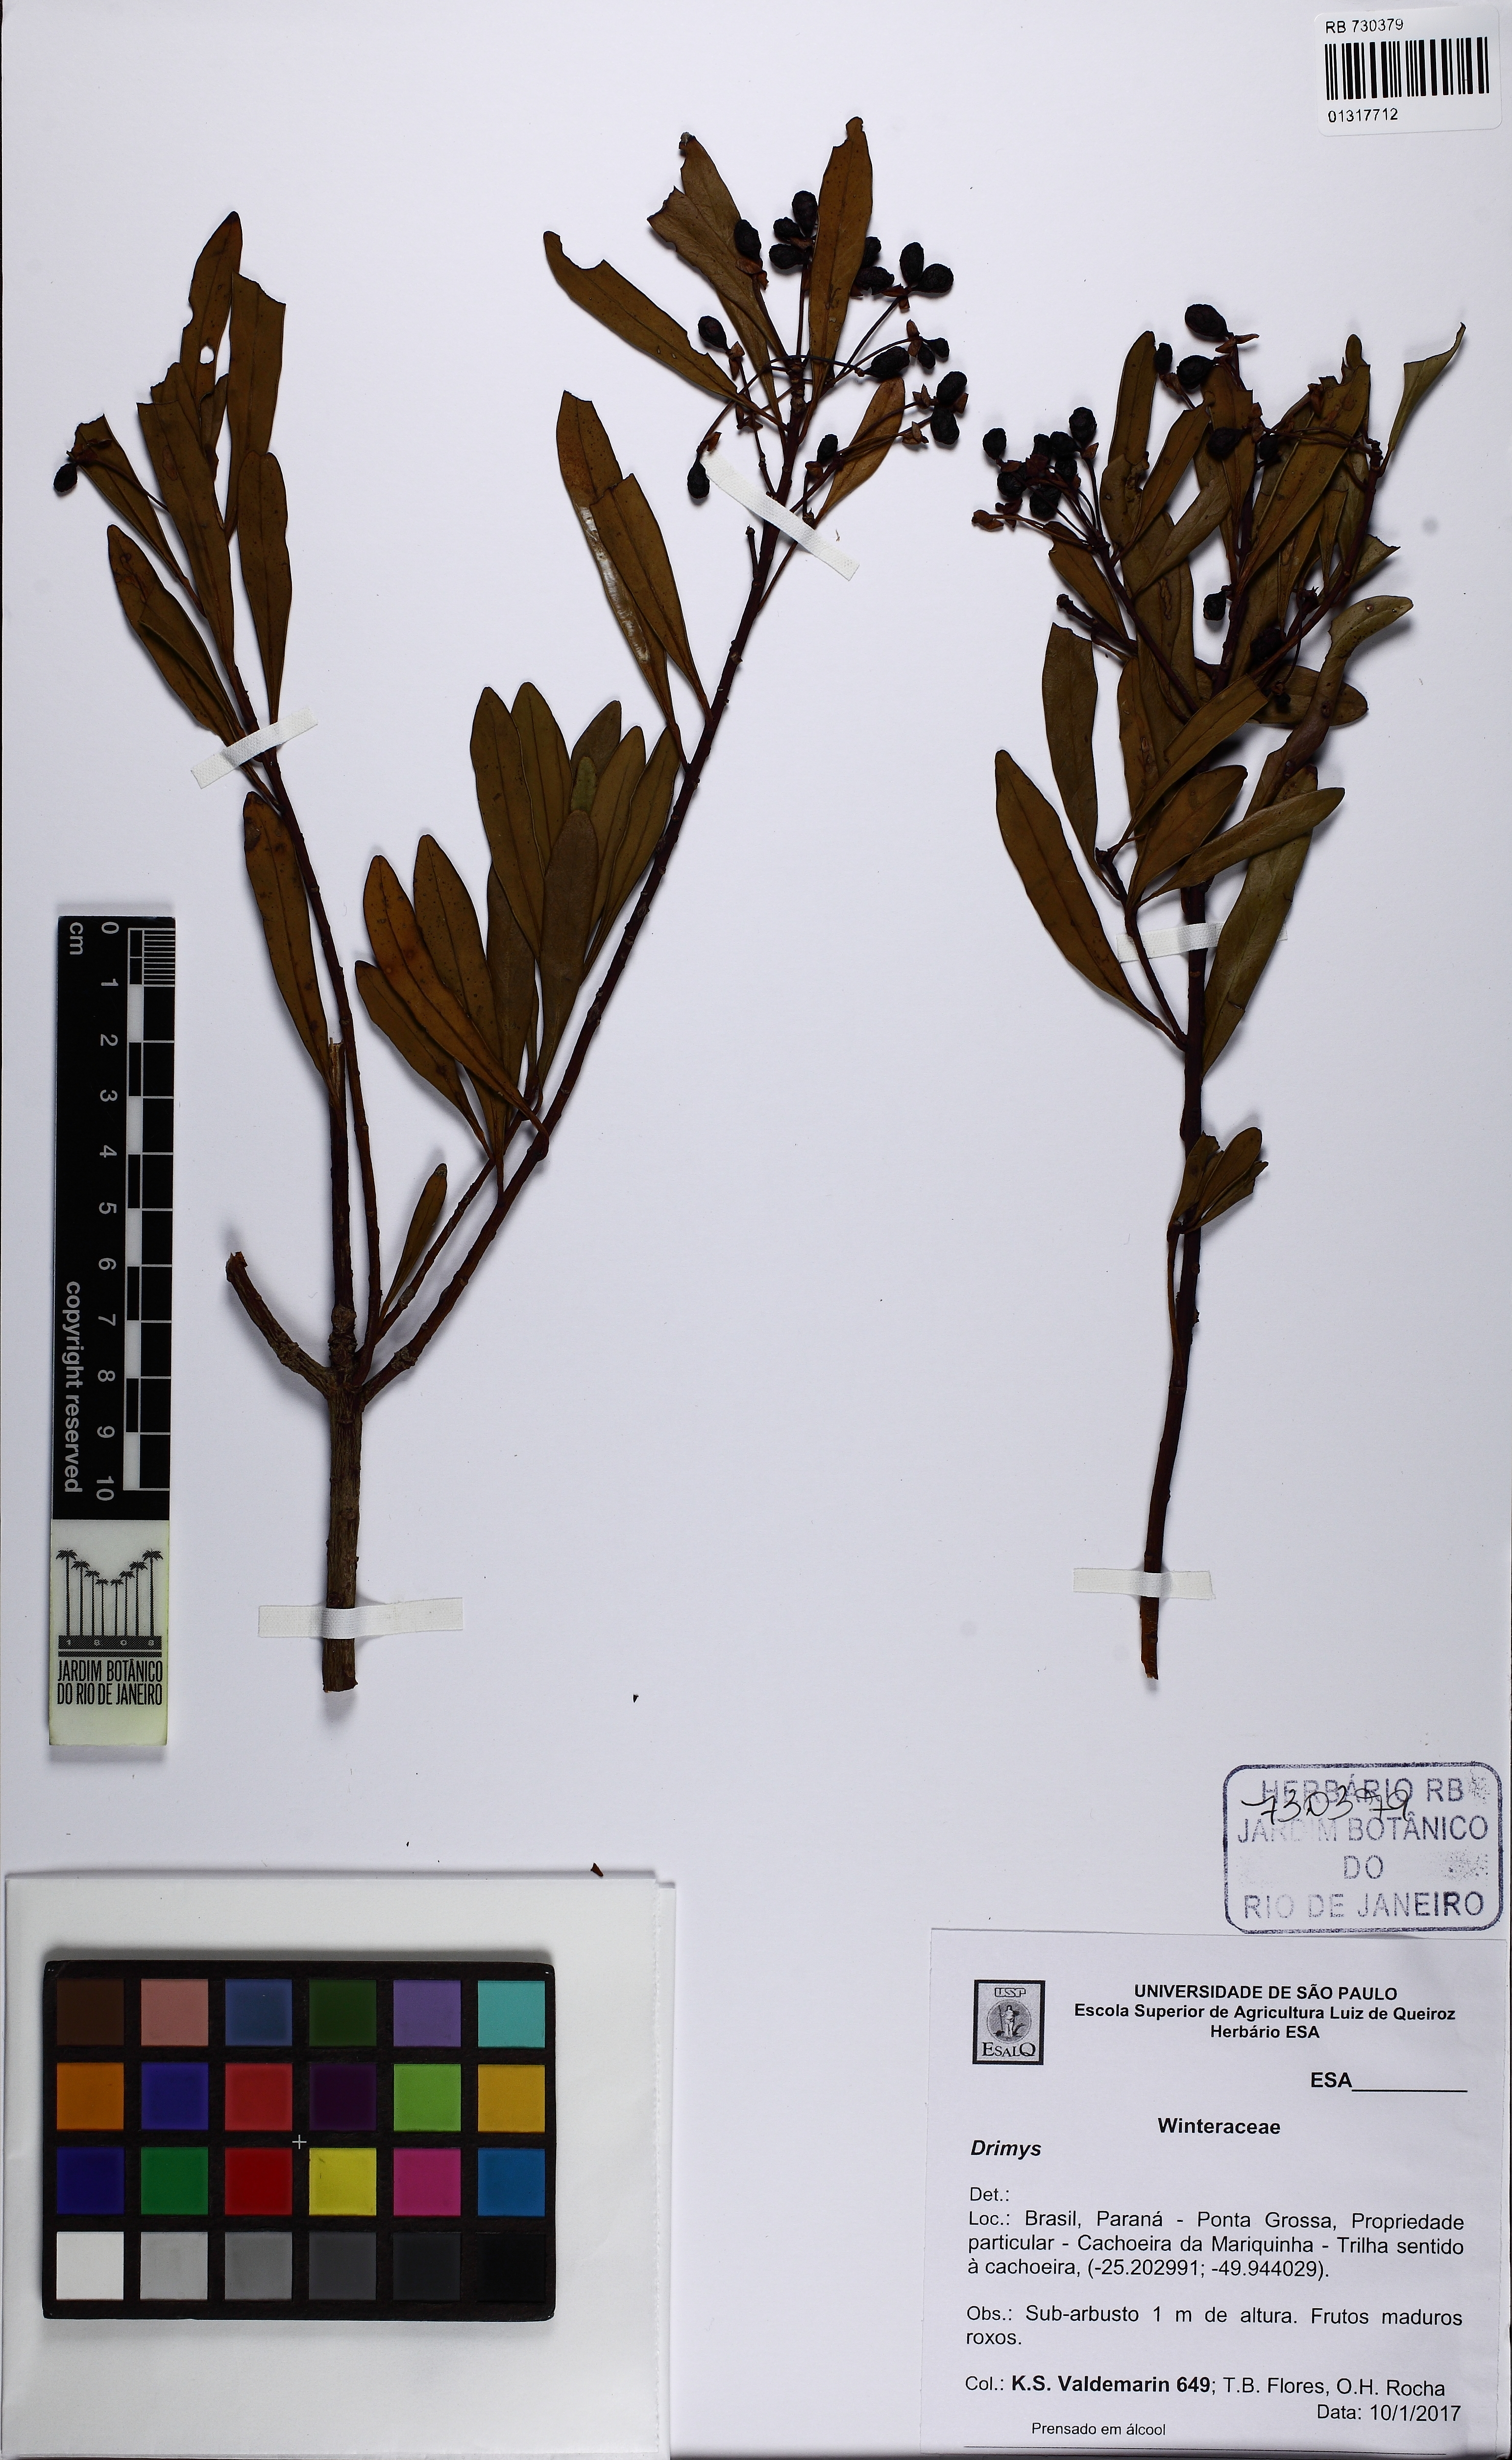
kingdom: Plantae
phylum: Tracheophyta
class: Magnoliopsida
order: Canellales
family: Winteraceae
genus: Drimys
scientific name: Drimys
